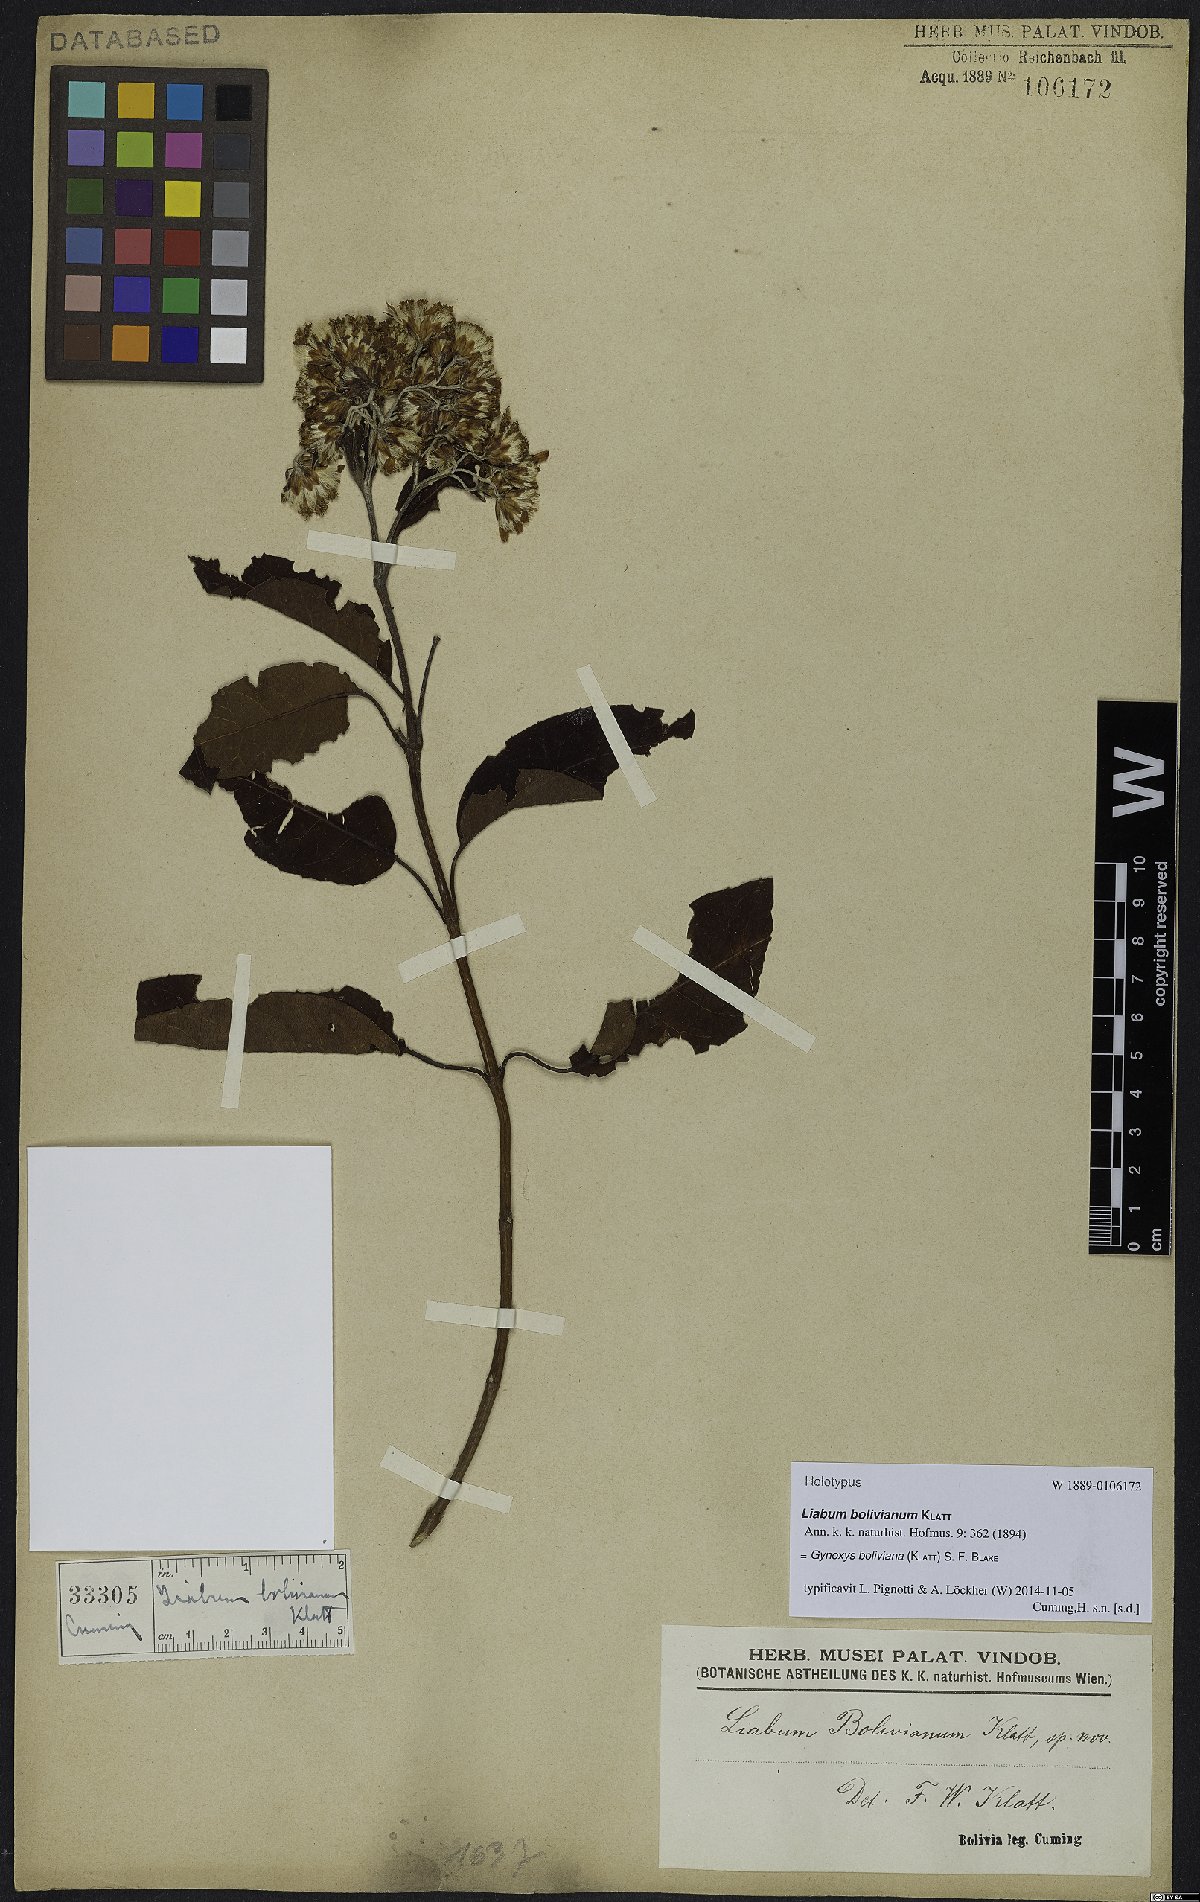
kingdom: Plantae
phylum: Tracheophyta
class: Magnoliopsida
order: Asterales
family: Asteraceae
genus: Gynoxys
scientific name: Gynoxys boliviana
